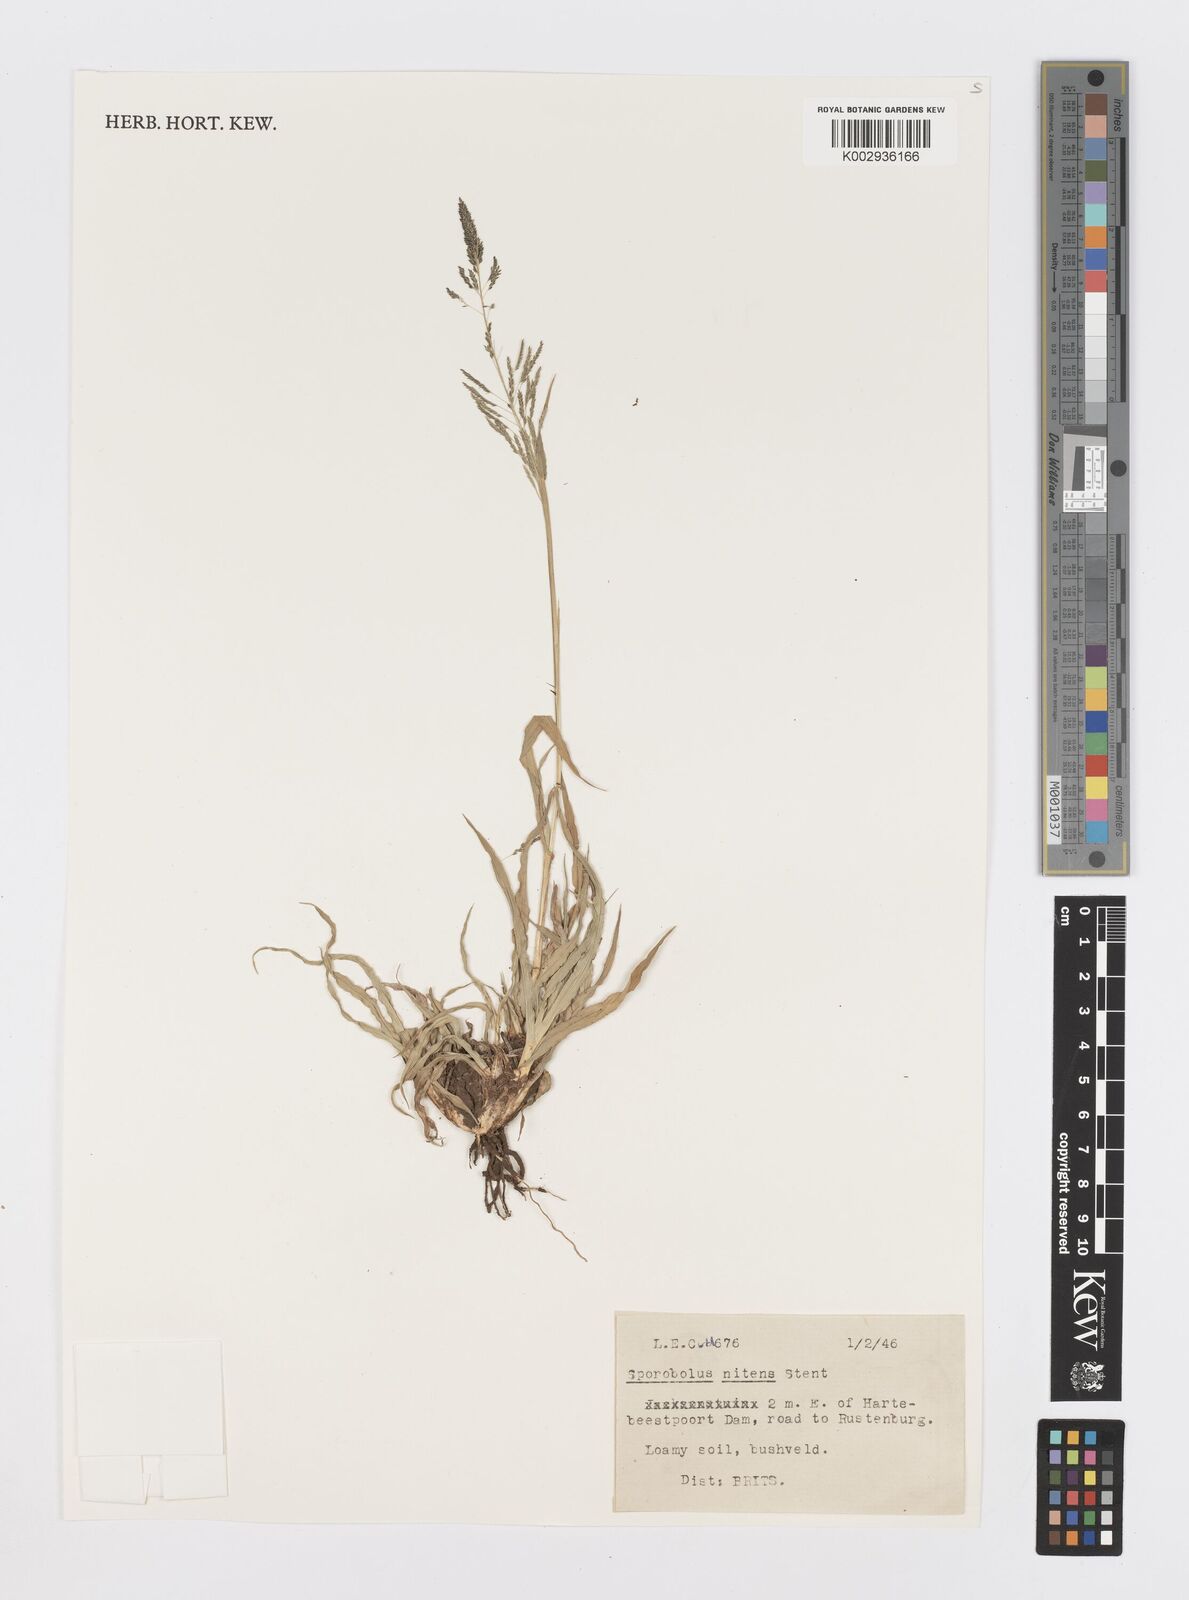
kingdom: Plantae
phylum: Tracheophyta
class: Liliopsida
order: Poales
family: Poaceae
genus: Sporobolus
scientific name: Sporobolus nitens
